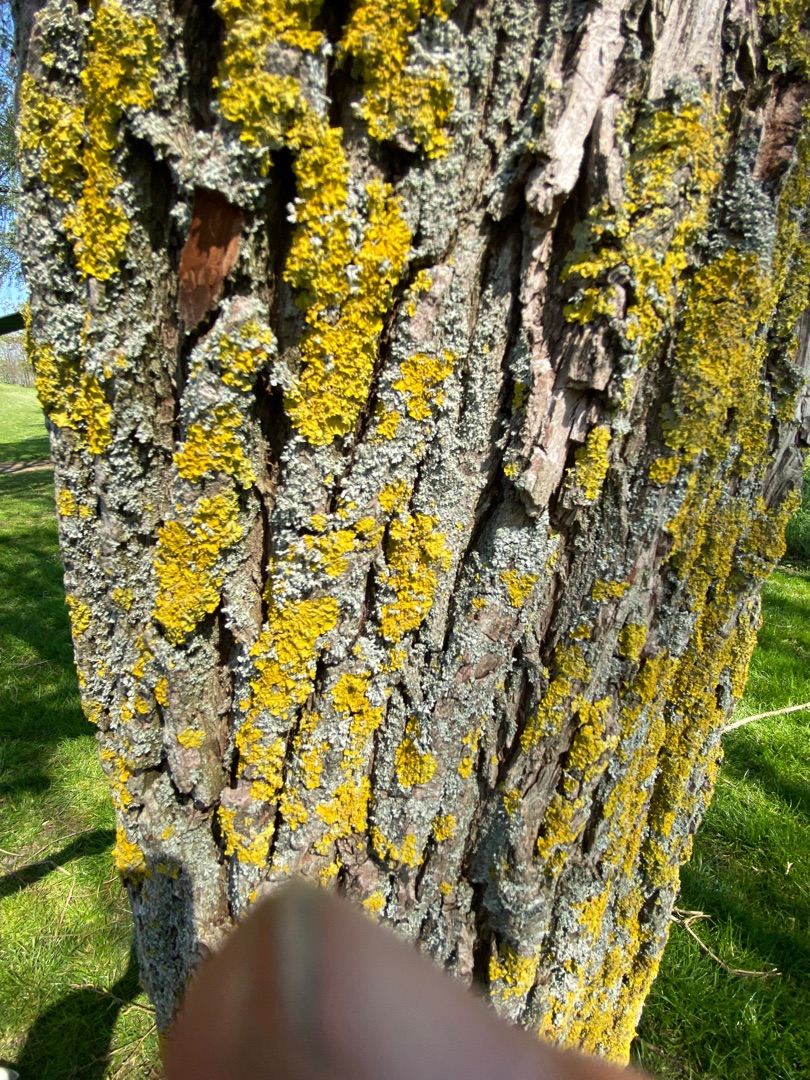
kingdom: Fungi
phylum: Ascomycota
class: Lecanoromycetes
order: Teloschistales
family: Teloschistaceae
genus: Xanthoria
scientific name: Xanthoria parietina
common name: Almindelig væggelav
